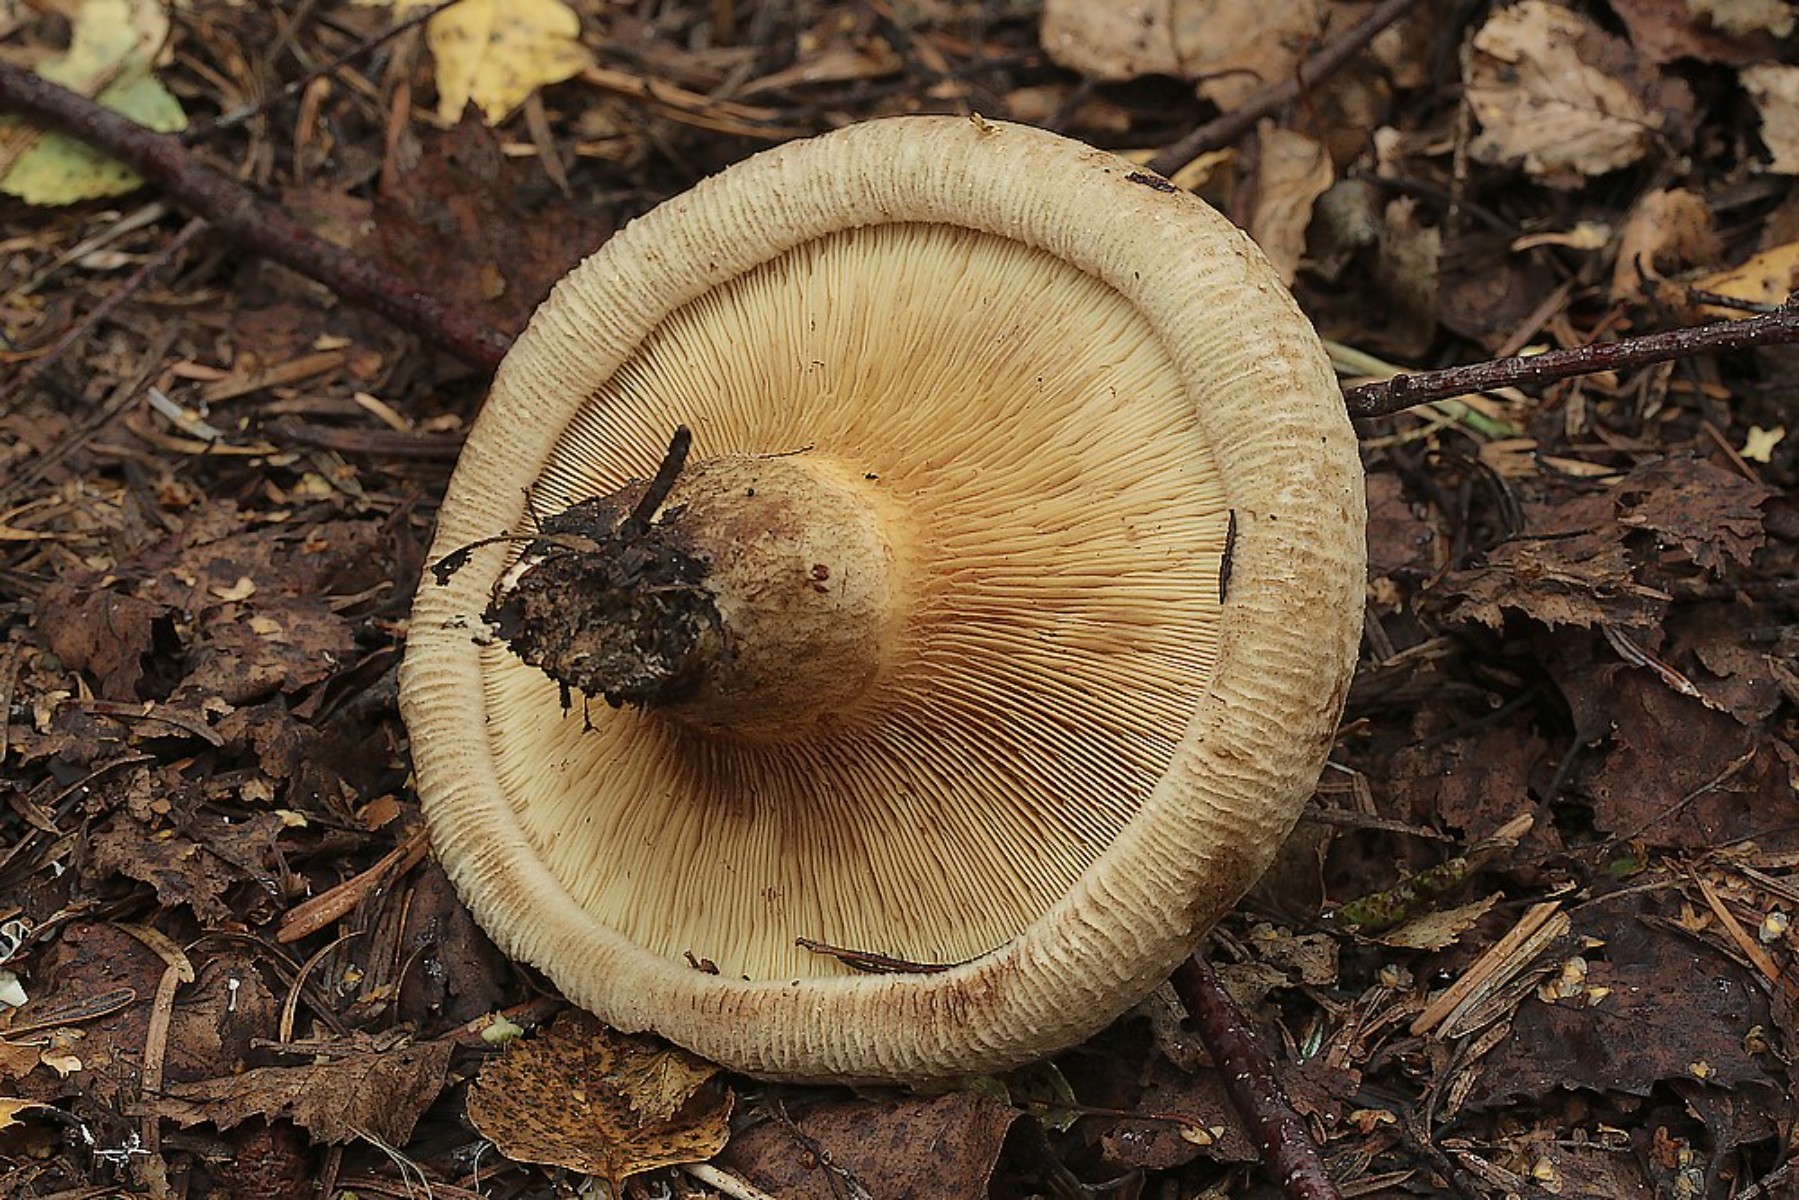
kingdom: Fungi
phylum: Basidiomycota
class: Agaricomycetes
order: Boletales
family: Paxillaceae
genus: Paxillus
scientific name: Paxillus involutus
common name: almindelig netbladhat
